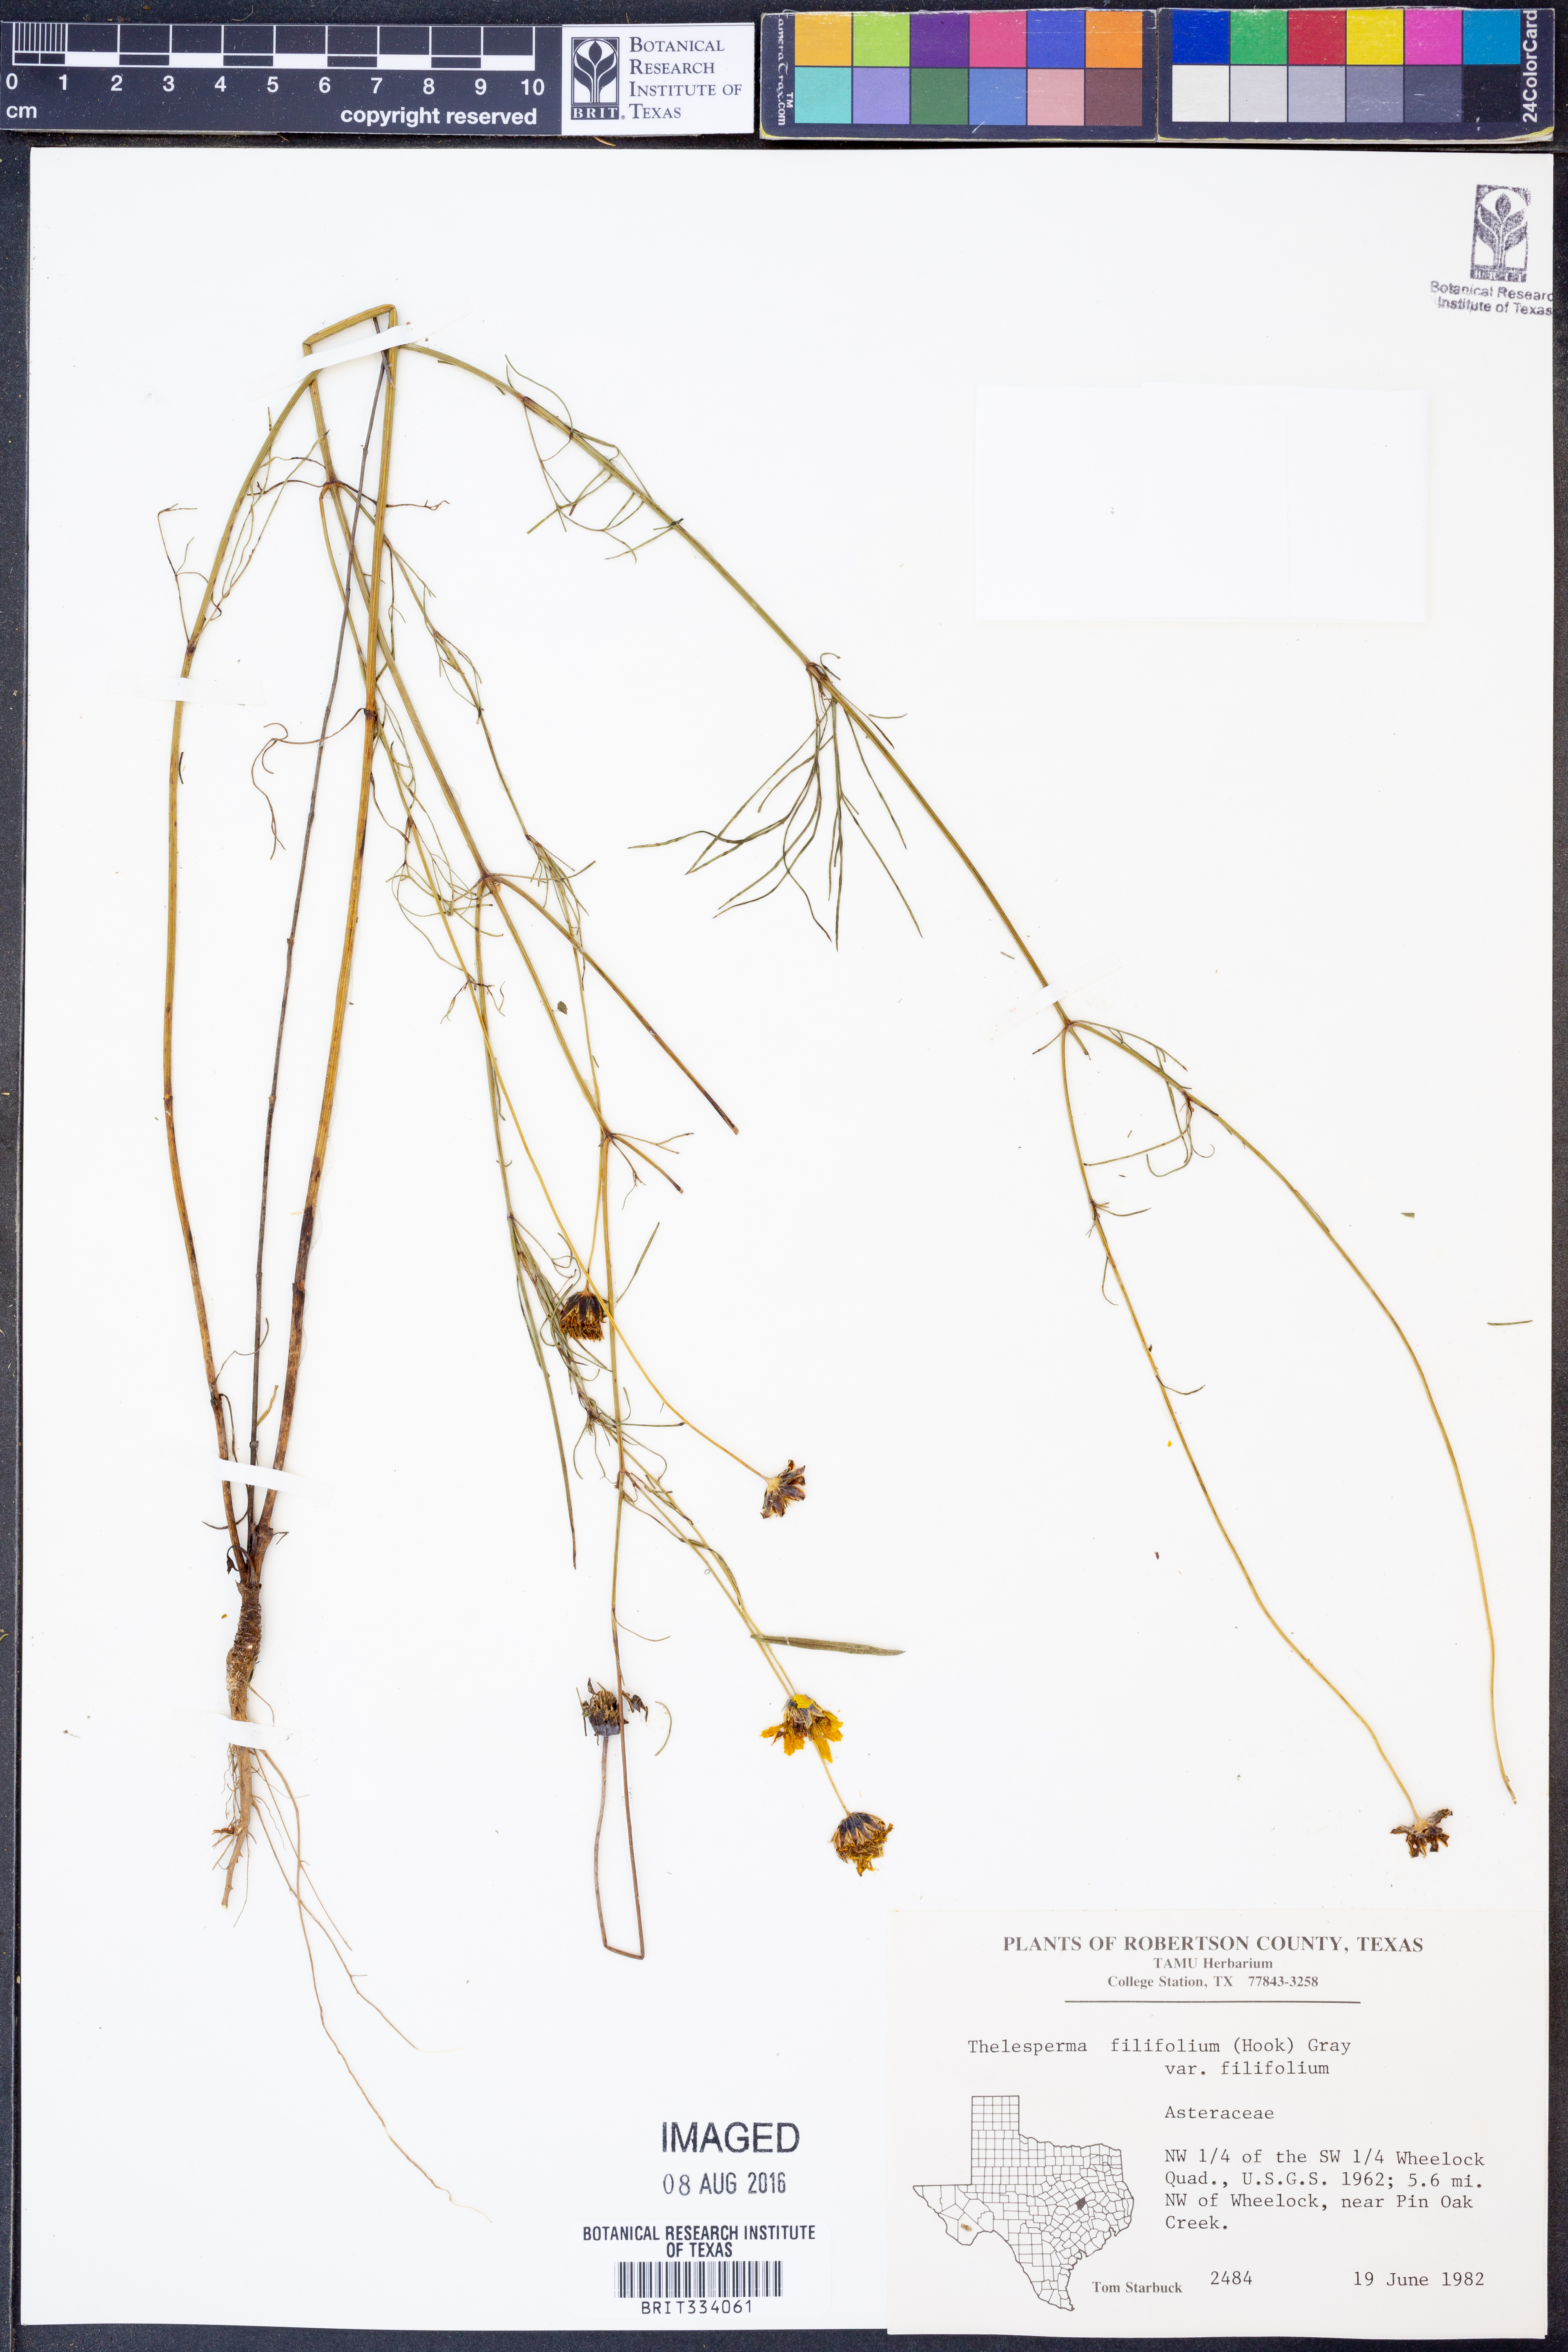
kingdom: Plantae
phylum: Tracheophyta
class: Magnoliopsida
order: Asterales
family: Asteraceae
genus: Thelesperma
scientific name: Thelesperma filifolium
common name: Stiff greenthread
